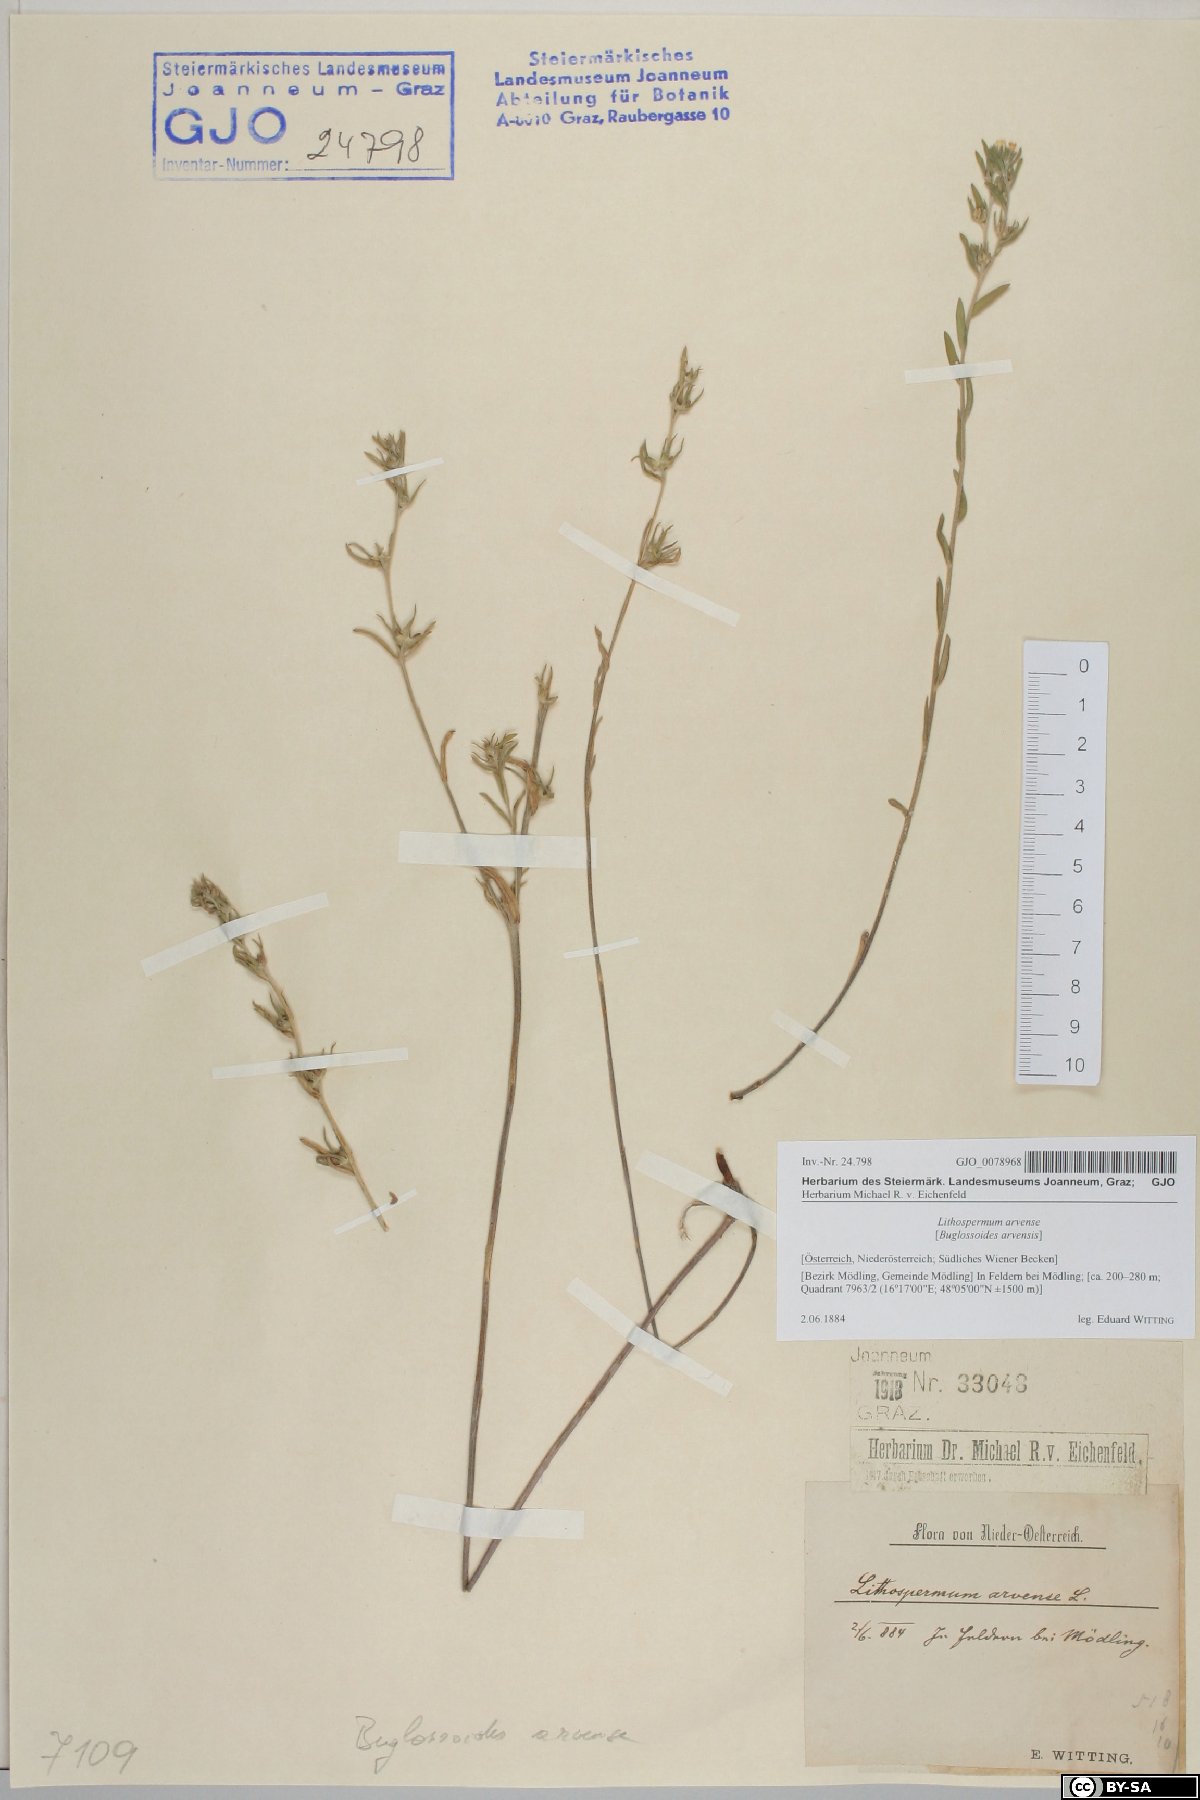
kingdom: Plantae
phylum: Tracheophyta
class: Magnoliopsida
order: Boraginales
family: Boraginaceae
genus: Buglossoides
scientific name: Buglossoides arvensis
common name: Corn gromwell
